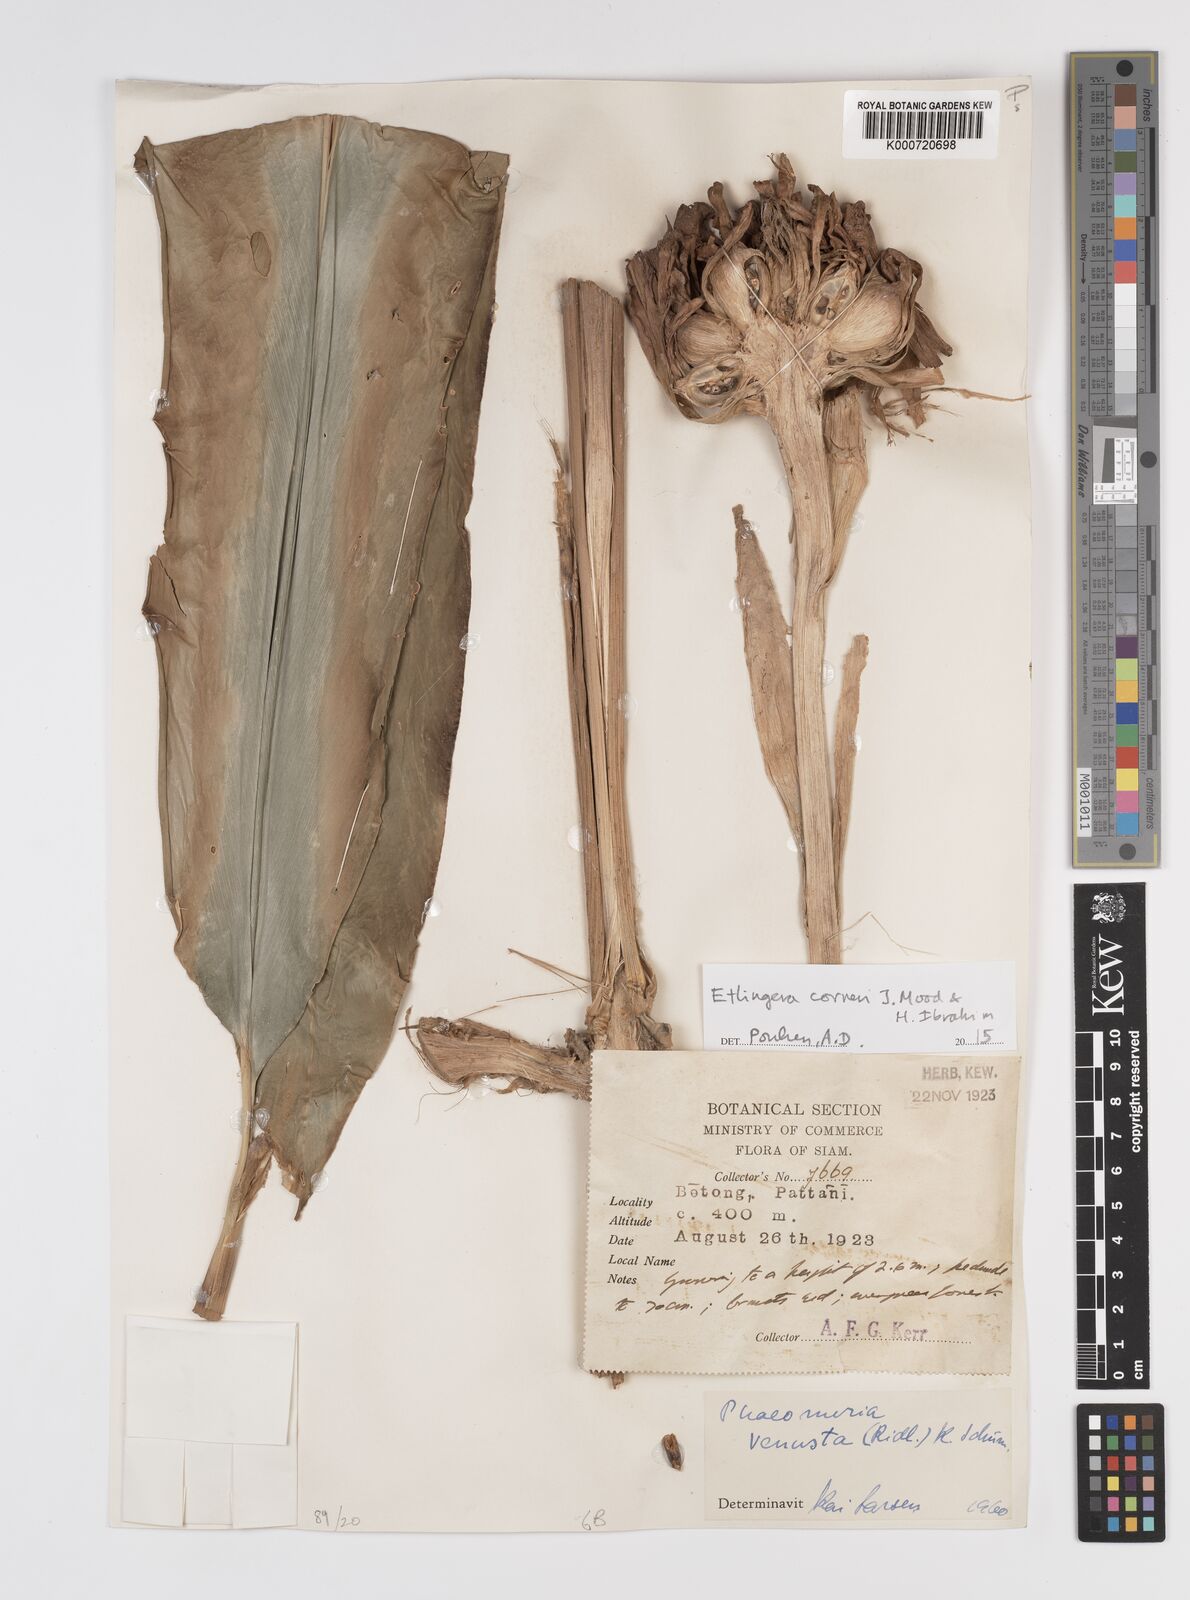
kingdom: Plantae
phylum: Tracheophyta
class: Liliopsida
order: Zingiberales
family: Zingiberaceae
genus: Etlingera
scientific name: Etlingera corneri
